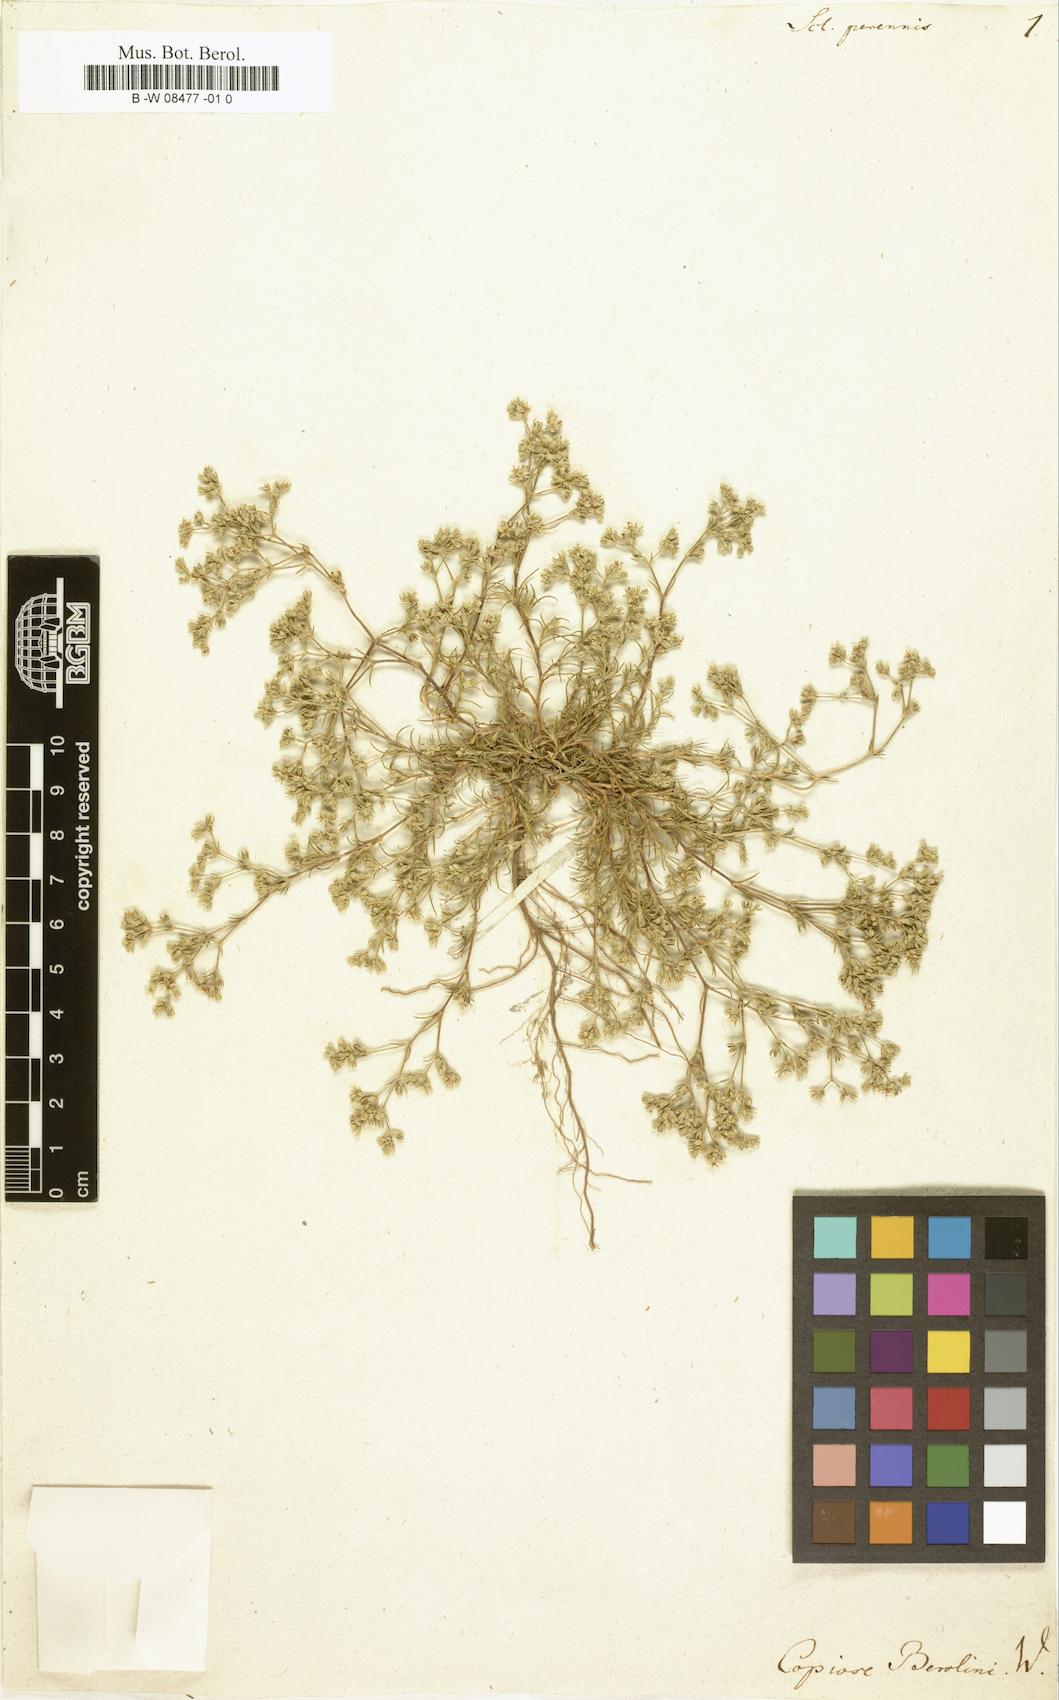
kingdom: Plantae
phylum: Tracheophyta
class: Magnoliopsida
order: Caryophyllales
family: Caryophyllaceae
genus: Scleranthus
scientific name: Scleranthus perennis
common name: Perennial knawel
